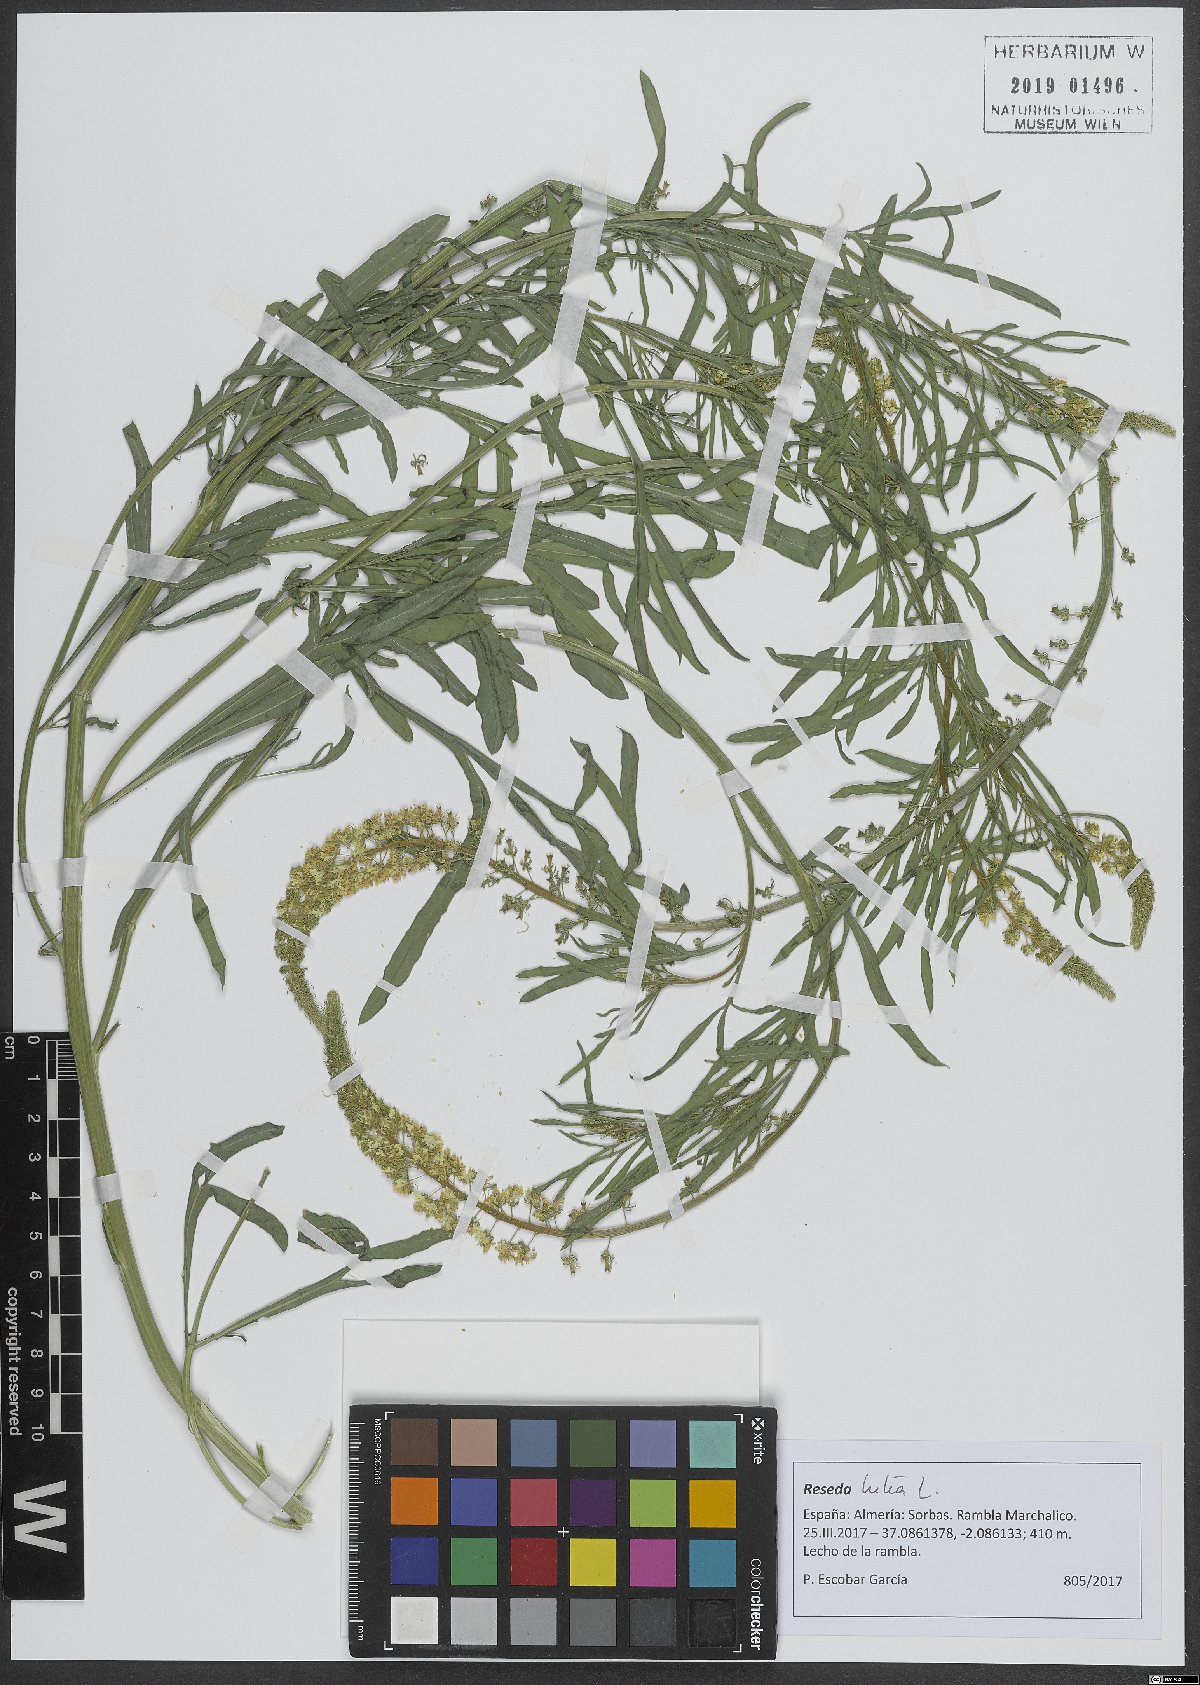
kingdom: Plantae
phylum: Tracheophyta
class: Magnoliopsida
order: Brassicales
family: Resedaceae
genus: Reseda
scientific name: Reseda lutea
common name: Wild mignonette
